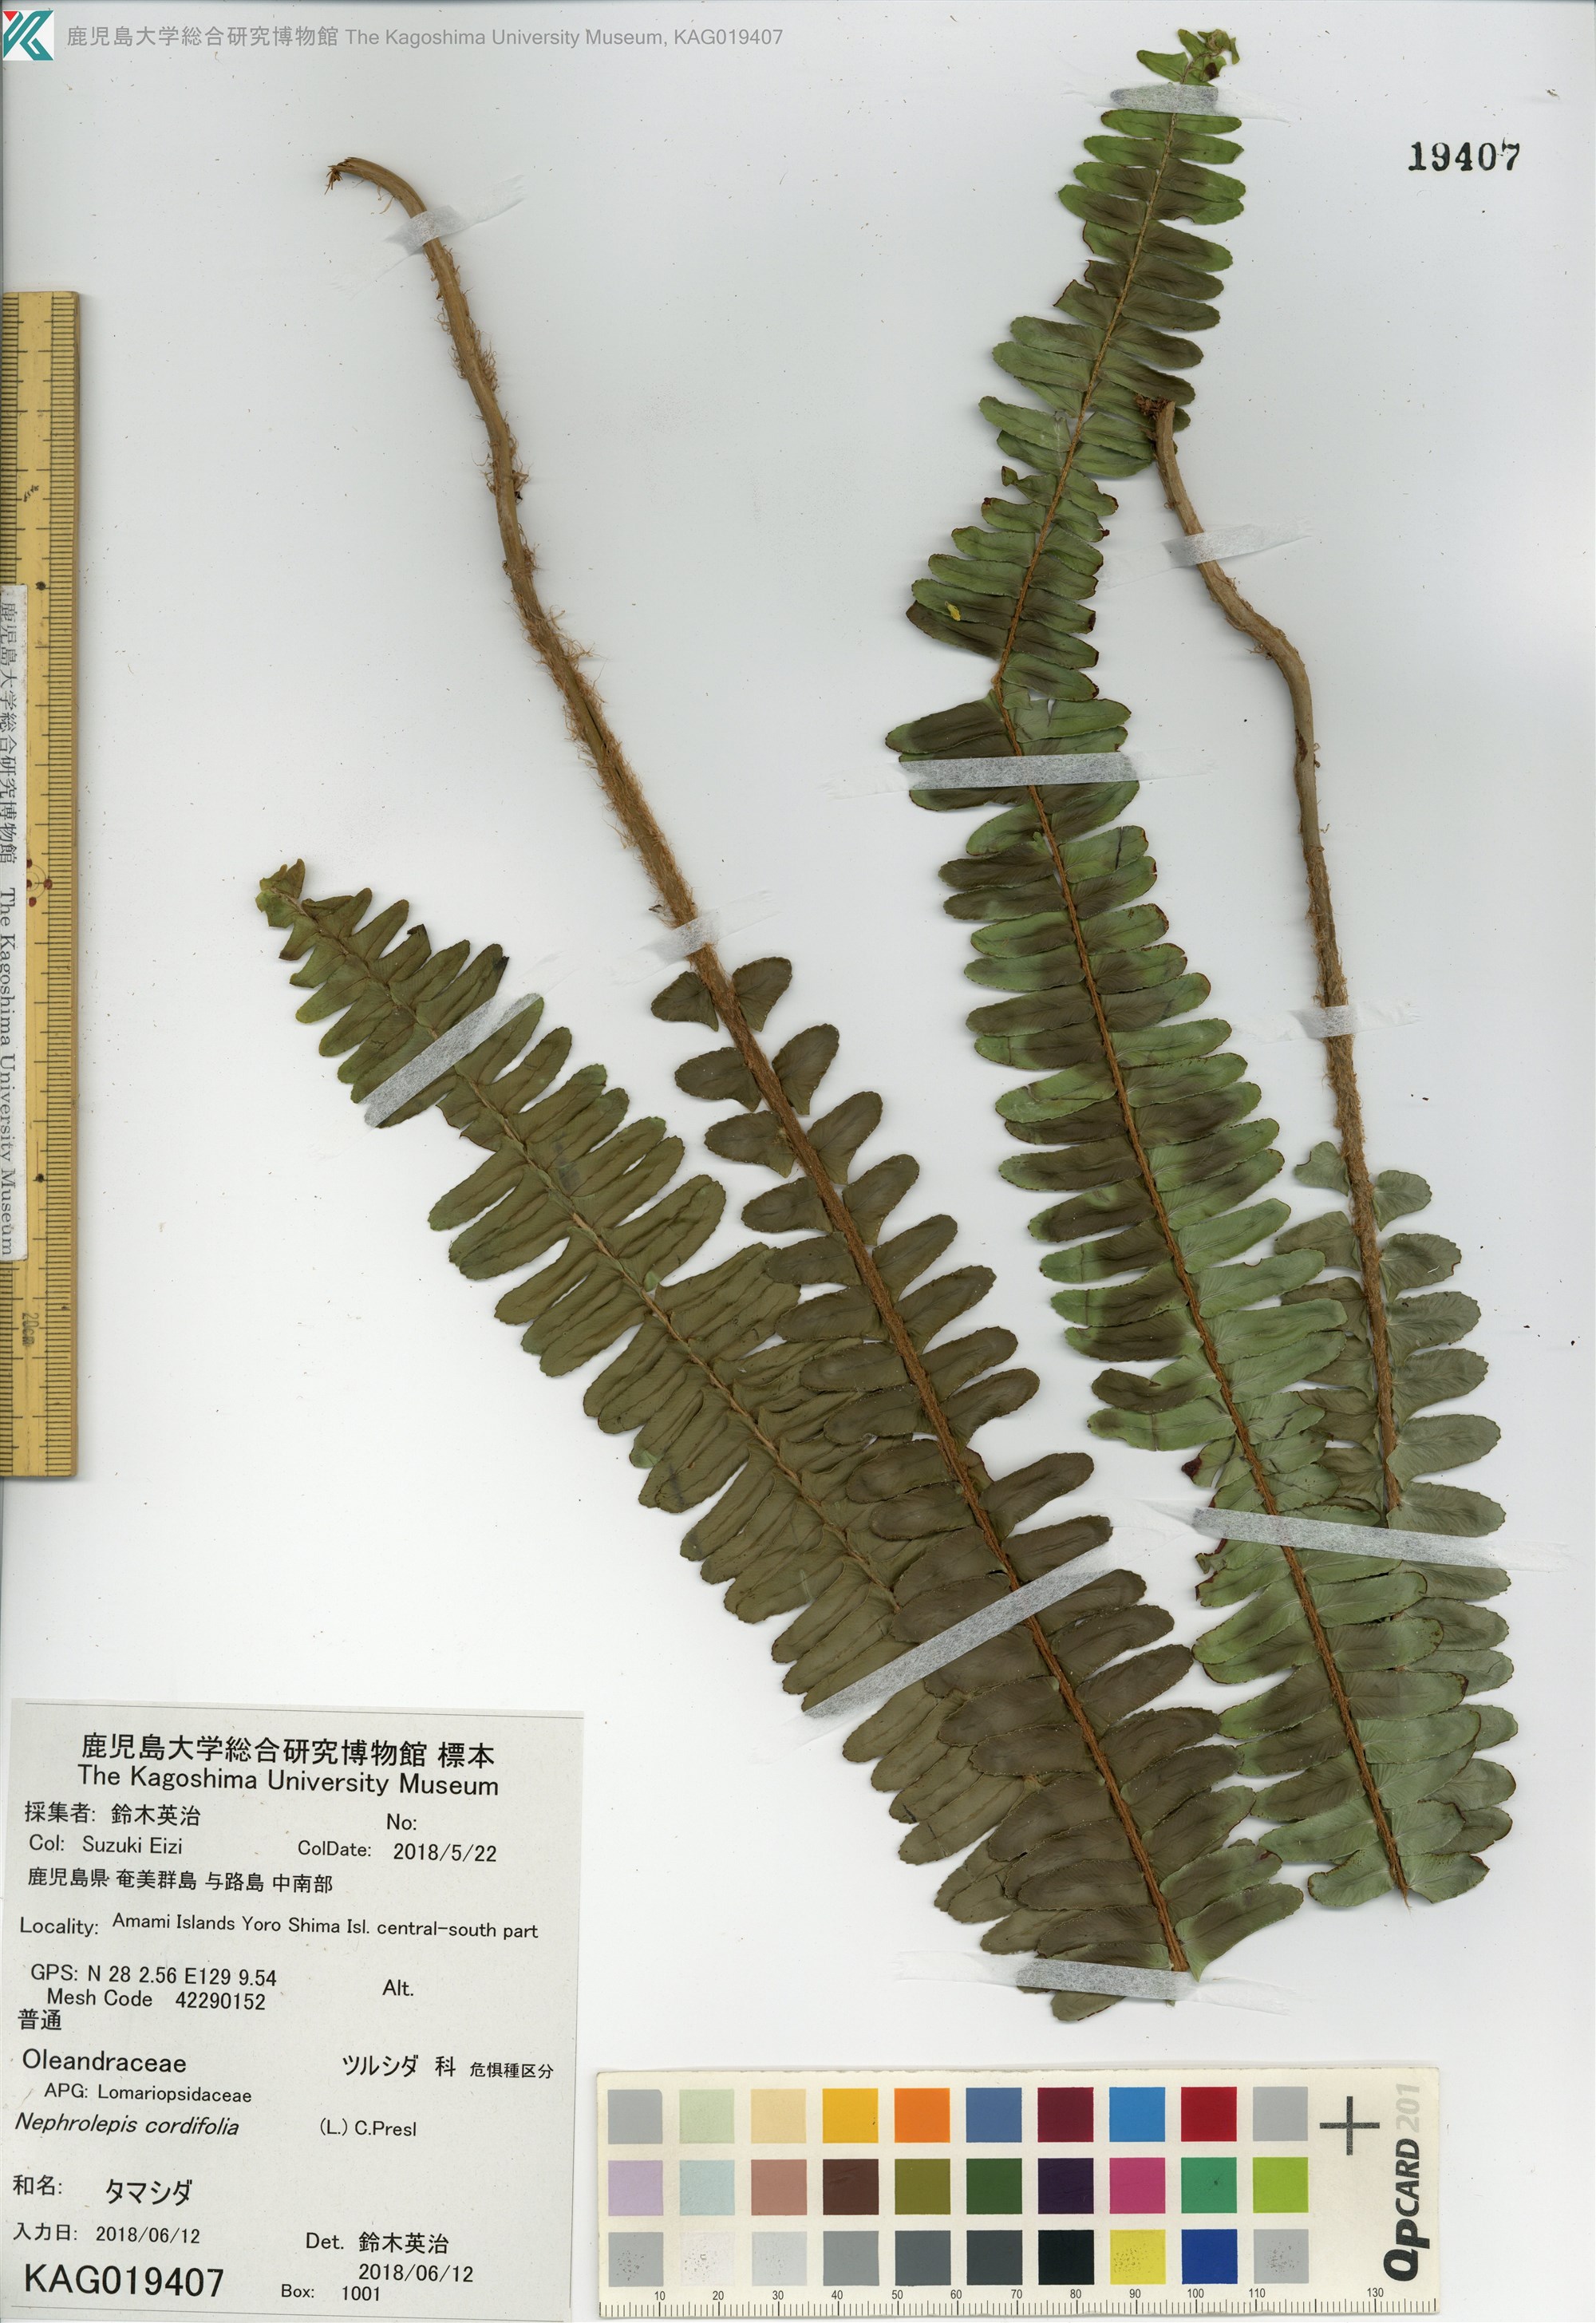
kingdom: Plantae
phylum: Tracheophyta
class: Polypodiopsida
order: Polypodiales
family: Nephrolepidaceae
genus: Nephrolepis
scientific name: Nephrolepis cordifolia
